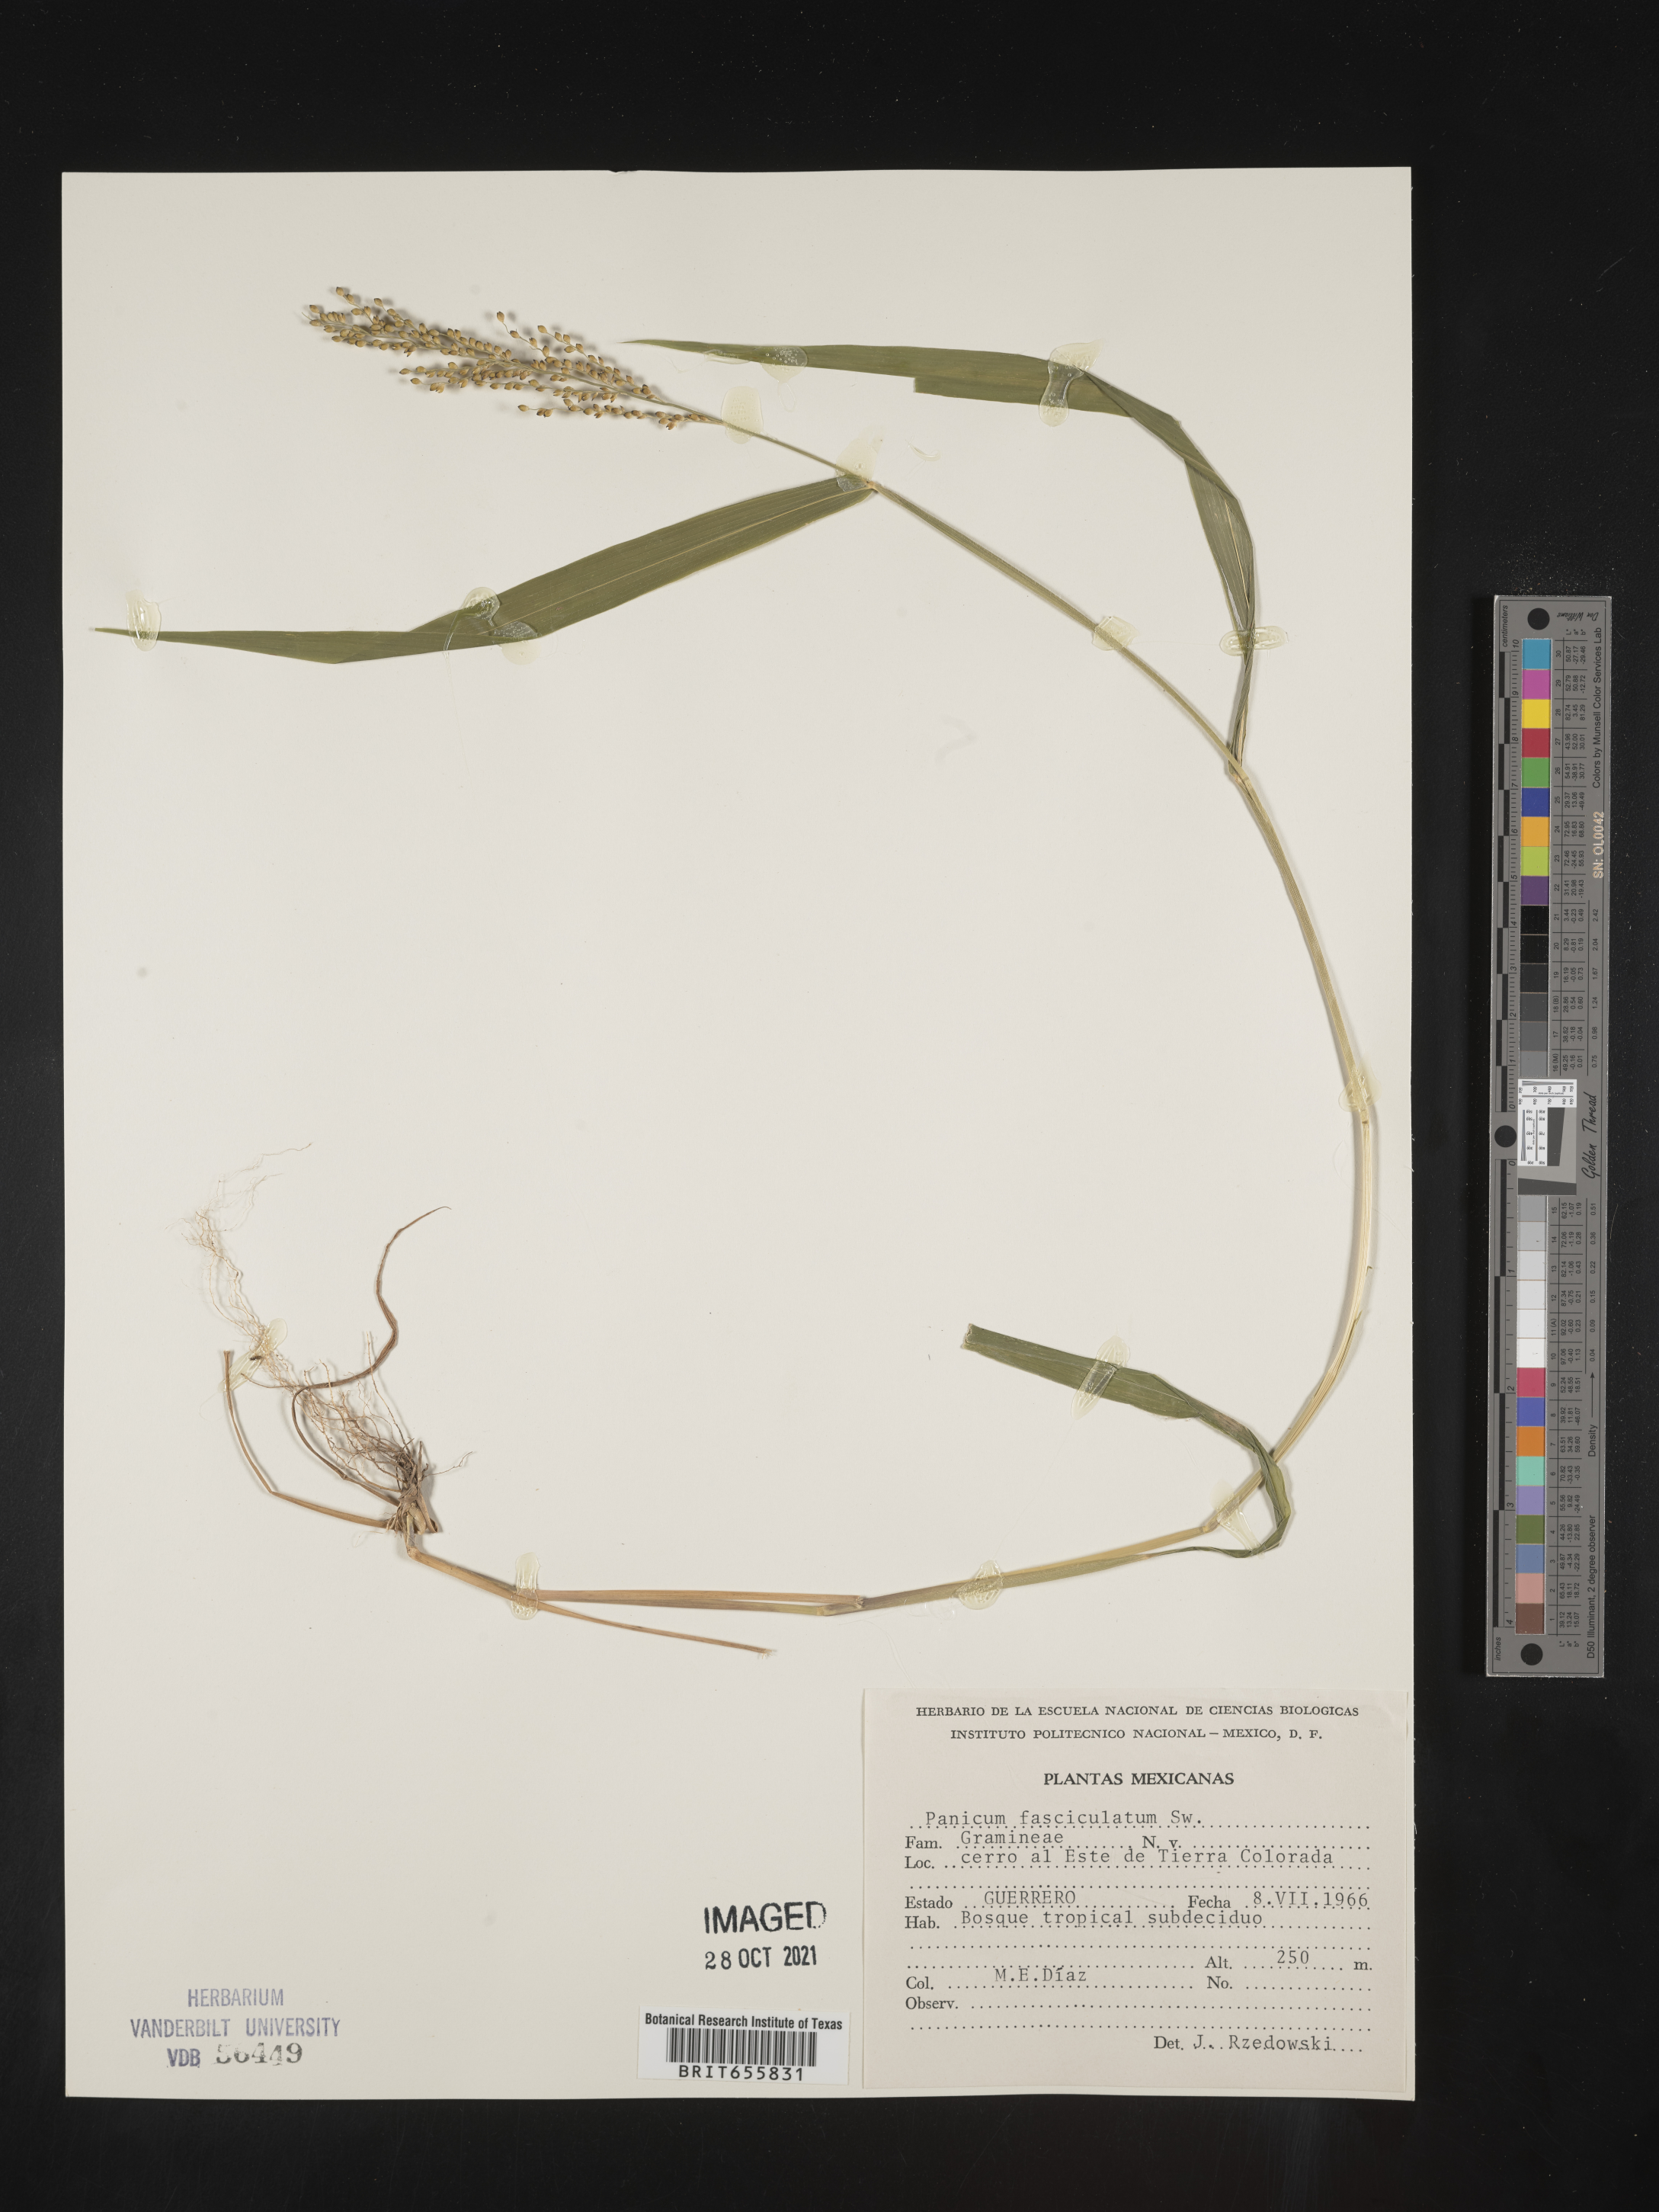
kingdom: Plantae
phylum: Tracheophyta
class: Liliopsida
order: Poales
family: Poaceae
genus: Panicum
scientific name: Panicum
